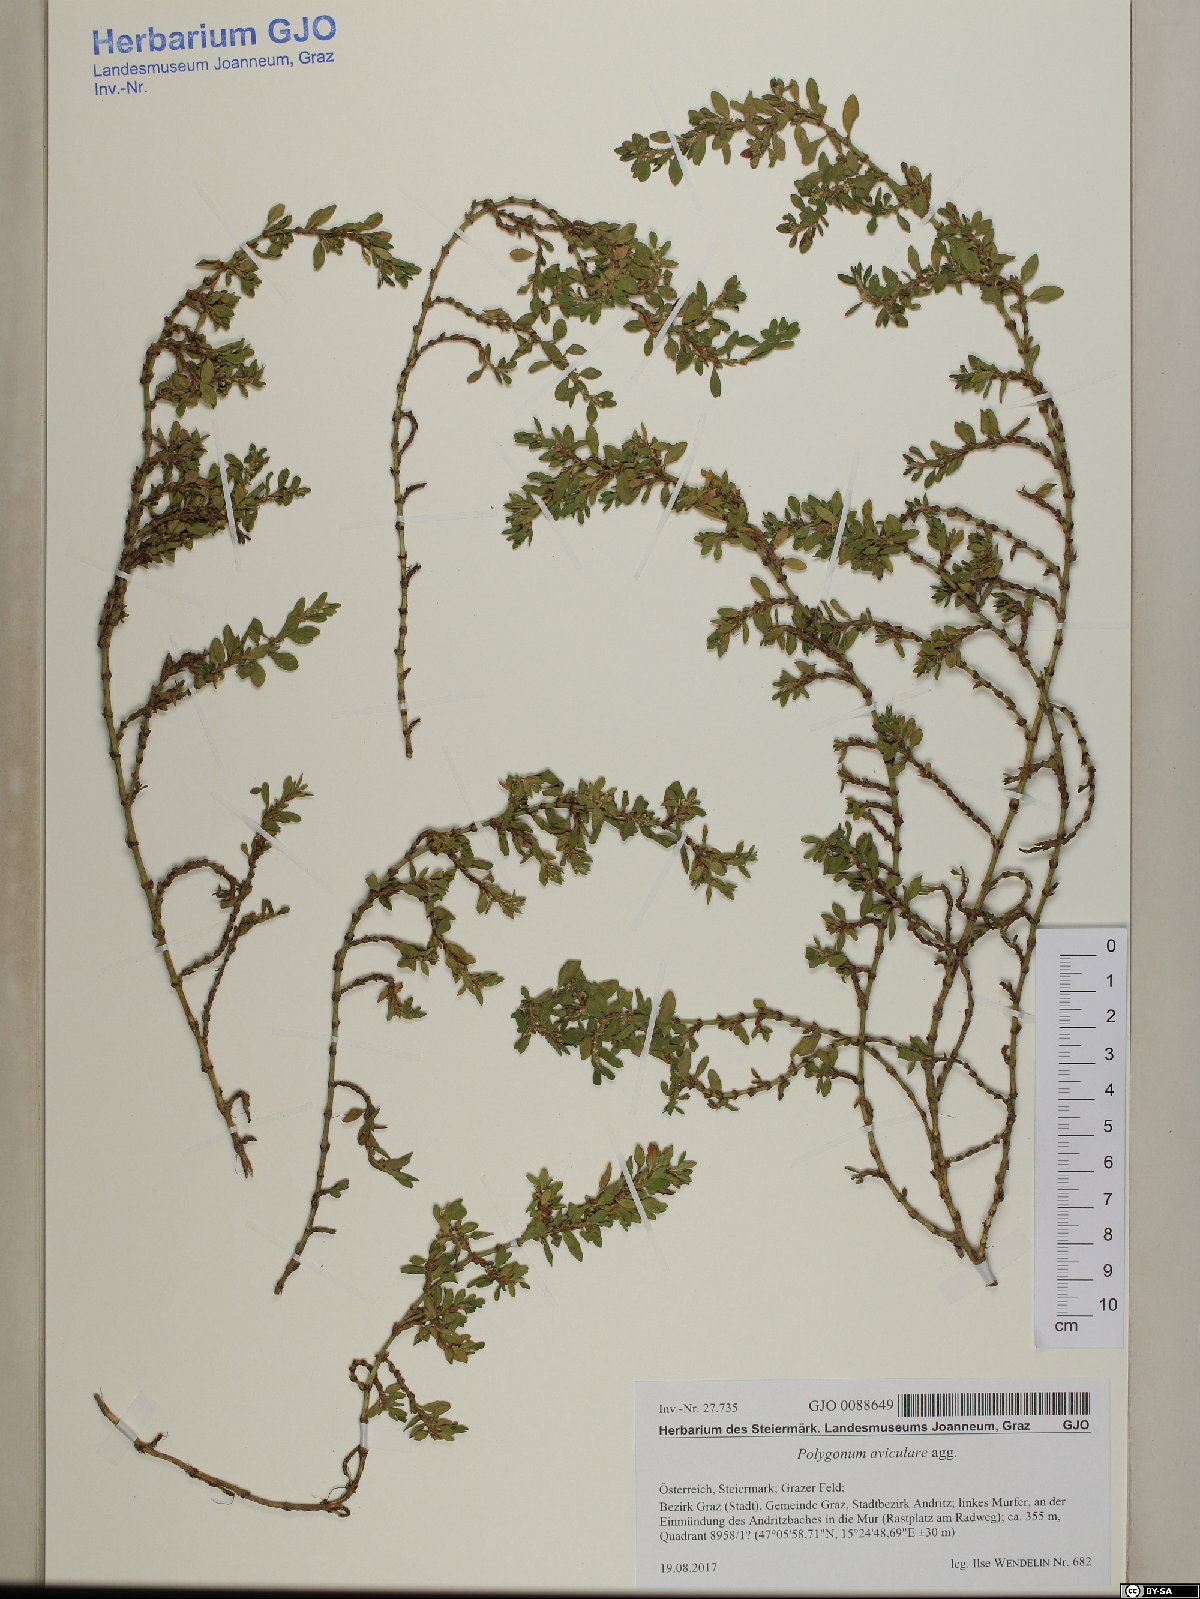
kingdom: Plantae
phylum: Tracheophyta
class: Magnoliopsida
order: Caryophyllales
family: Polygonaceae
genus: Polygonum
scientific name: Polygonum aviculare
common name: Prostrate knotweed
